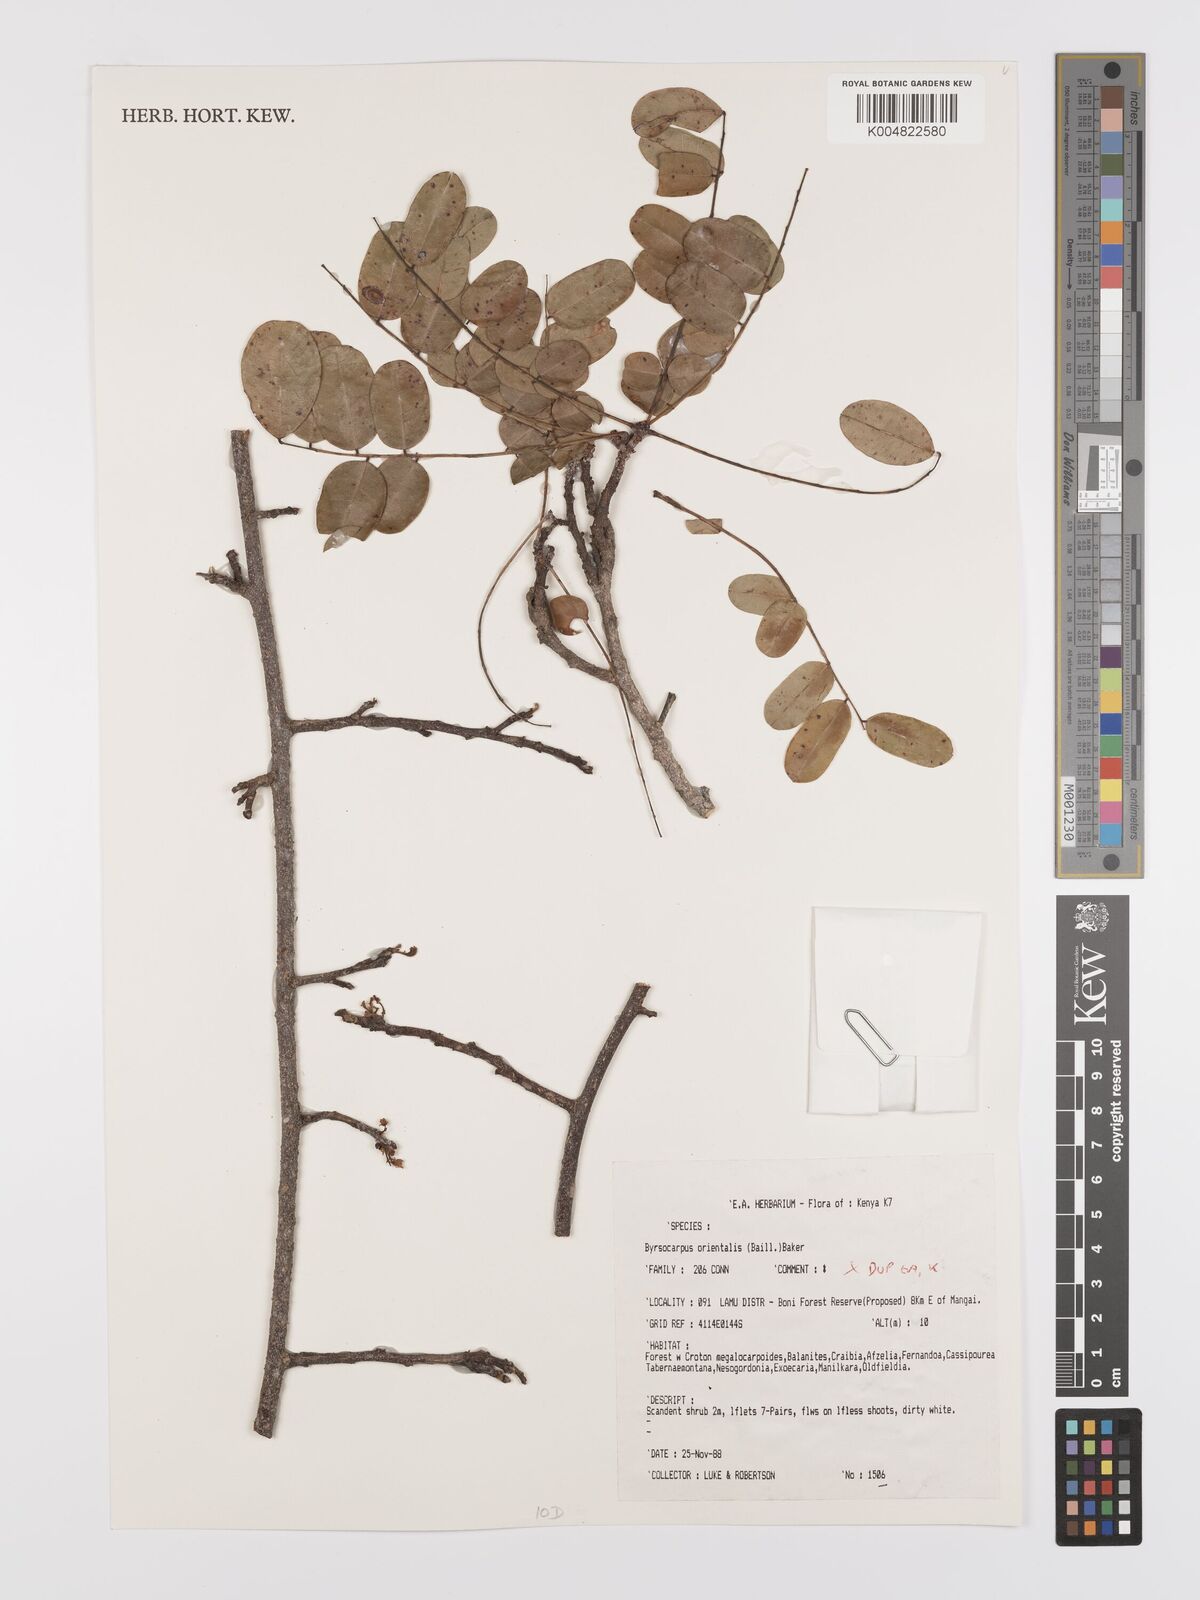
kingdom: Plantae
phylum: Tracheophyta
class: Magnoliopsida
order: Oxalidales
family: Connaraceae
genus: Rourea
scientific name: Rourea orientalis
